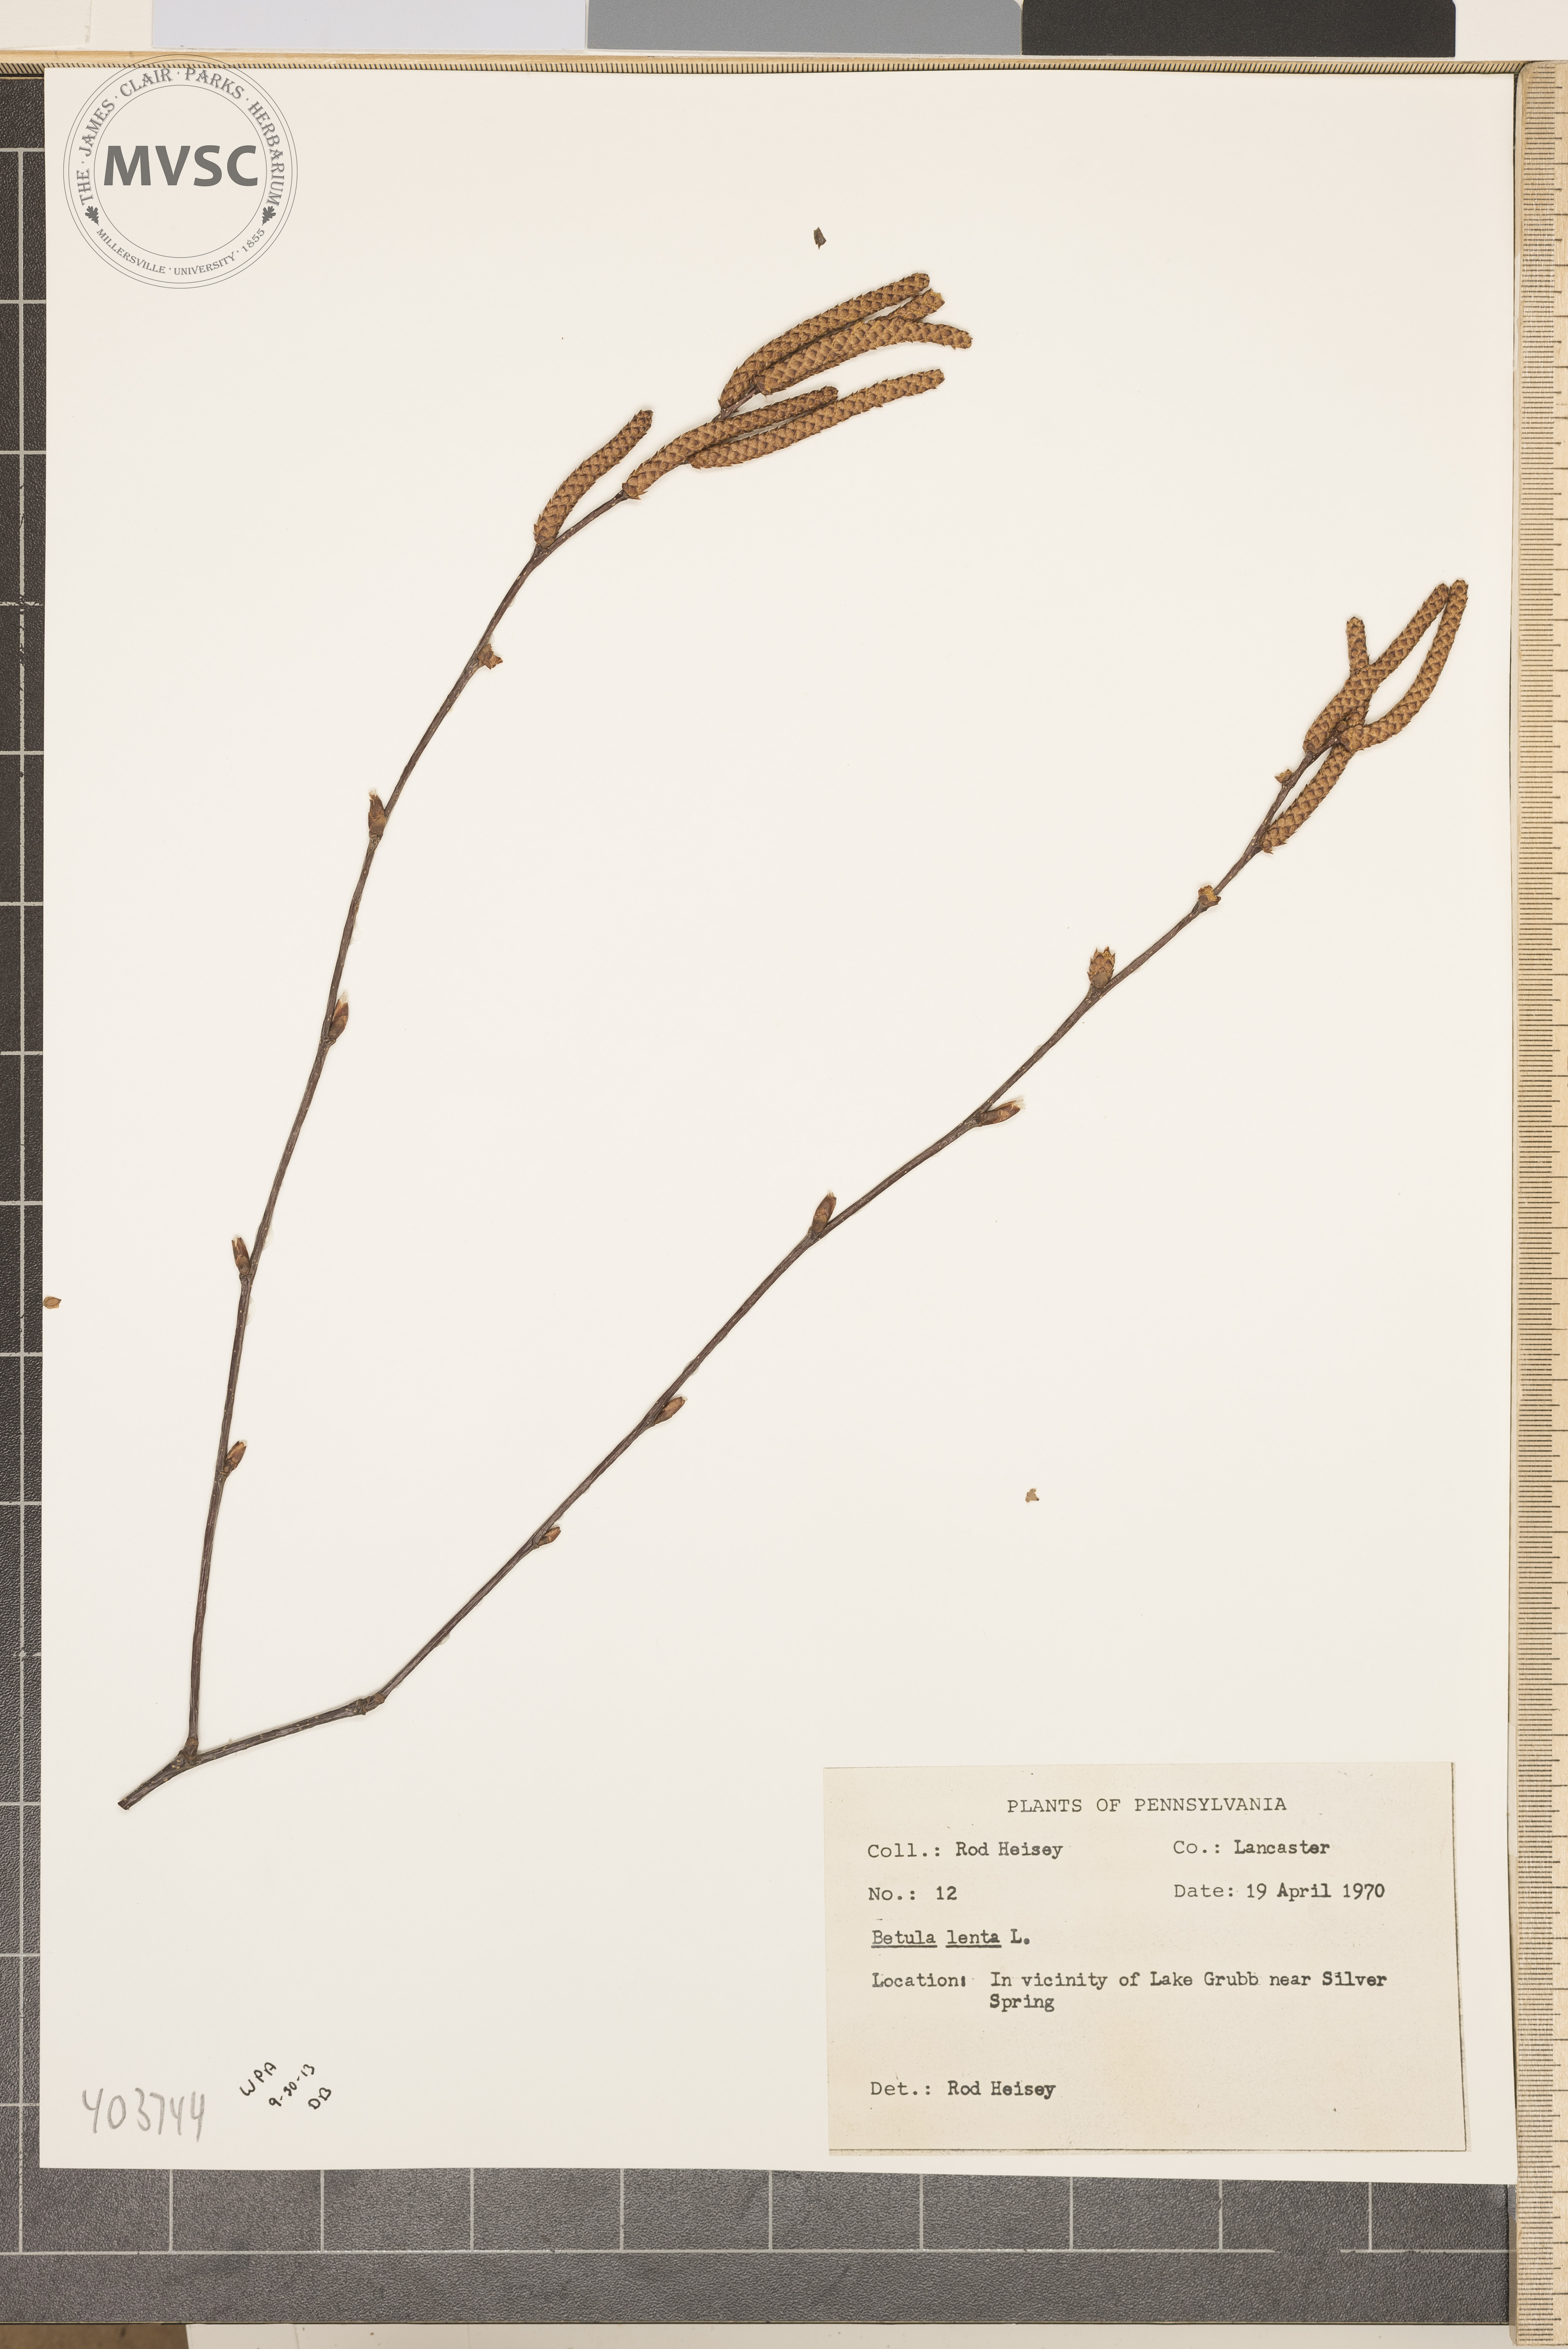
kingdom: Plantae
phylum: Tracheophyta
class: Magnoliopsida
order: Fagales
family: Betulaceae
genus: Betula
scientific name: Betula lenta
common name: Sweet Birch
